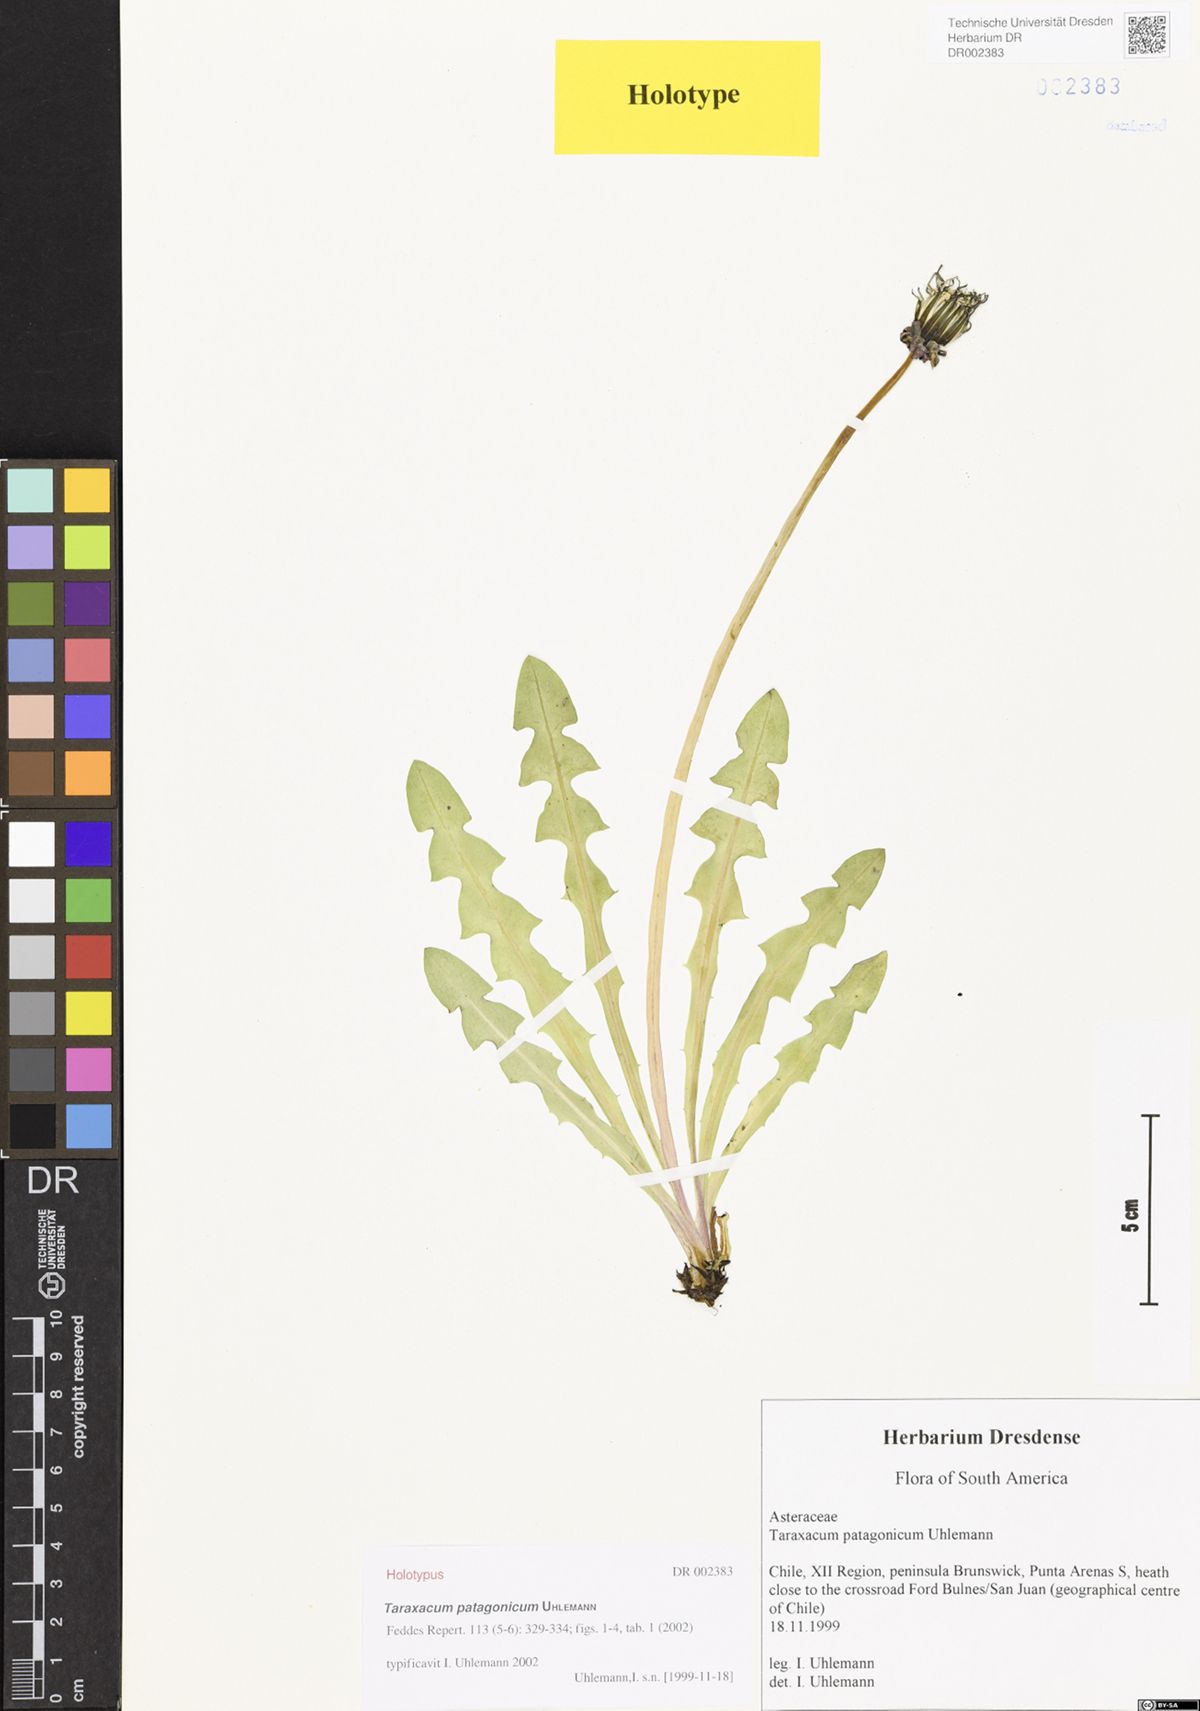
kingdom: Plantae
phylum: Tracheophyta
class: Magnoliopsida
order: Asterales
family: Asteraceae
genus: Taraxacum
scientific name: Taraxacum patagonicum
